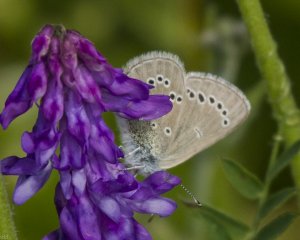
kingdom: Animalia
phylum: Arthropoda
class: Insecta
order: Lepidoptera
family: Lycaenidae
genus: Glaucopsyche
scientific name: Glaucopsyche lygdamus
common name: Silvery Blue
